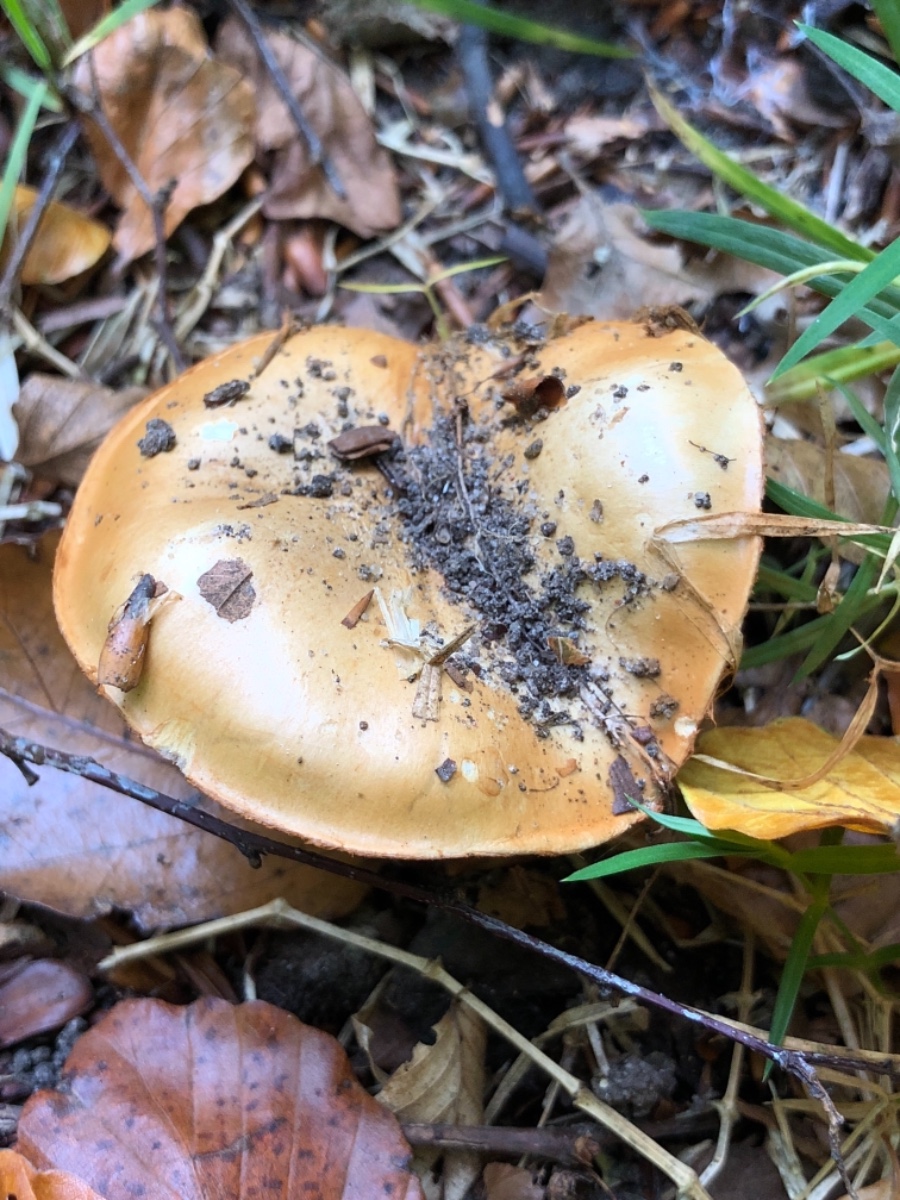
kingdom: Fungi
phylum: Basidiomycota
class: Agaricomycetes
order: Agaricales
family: Cortinariaceae
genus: Cortinarius
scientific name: Cortinarius
